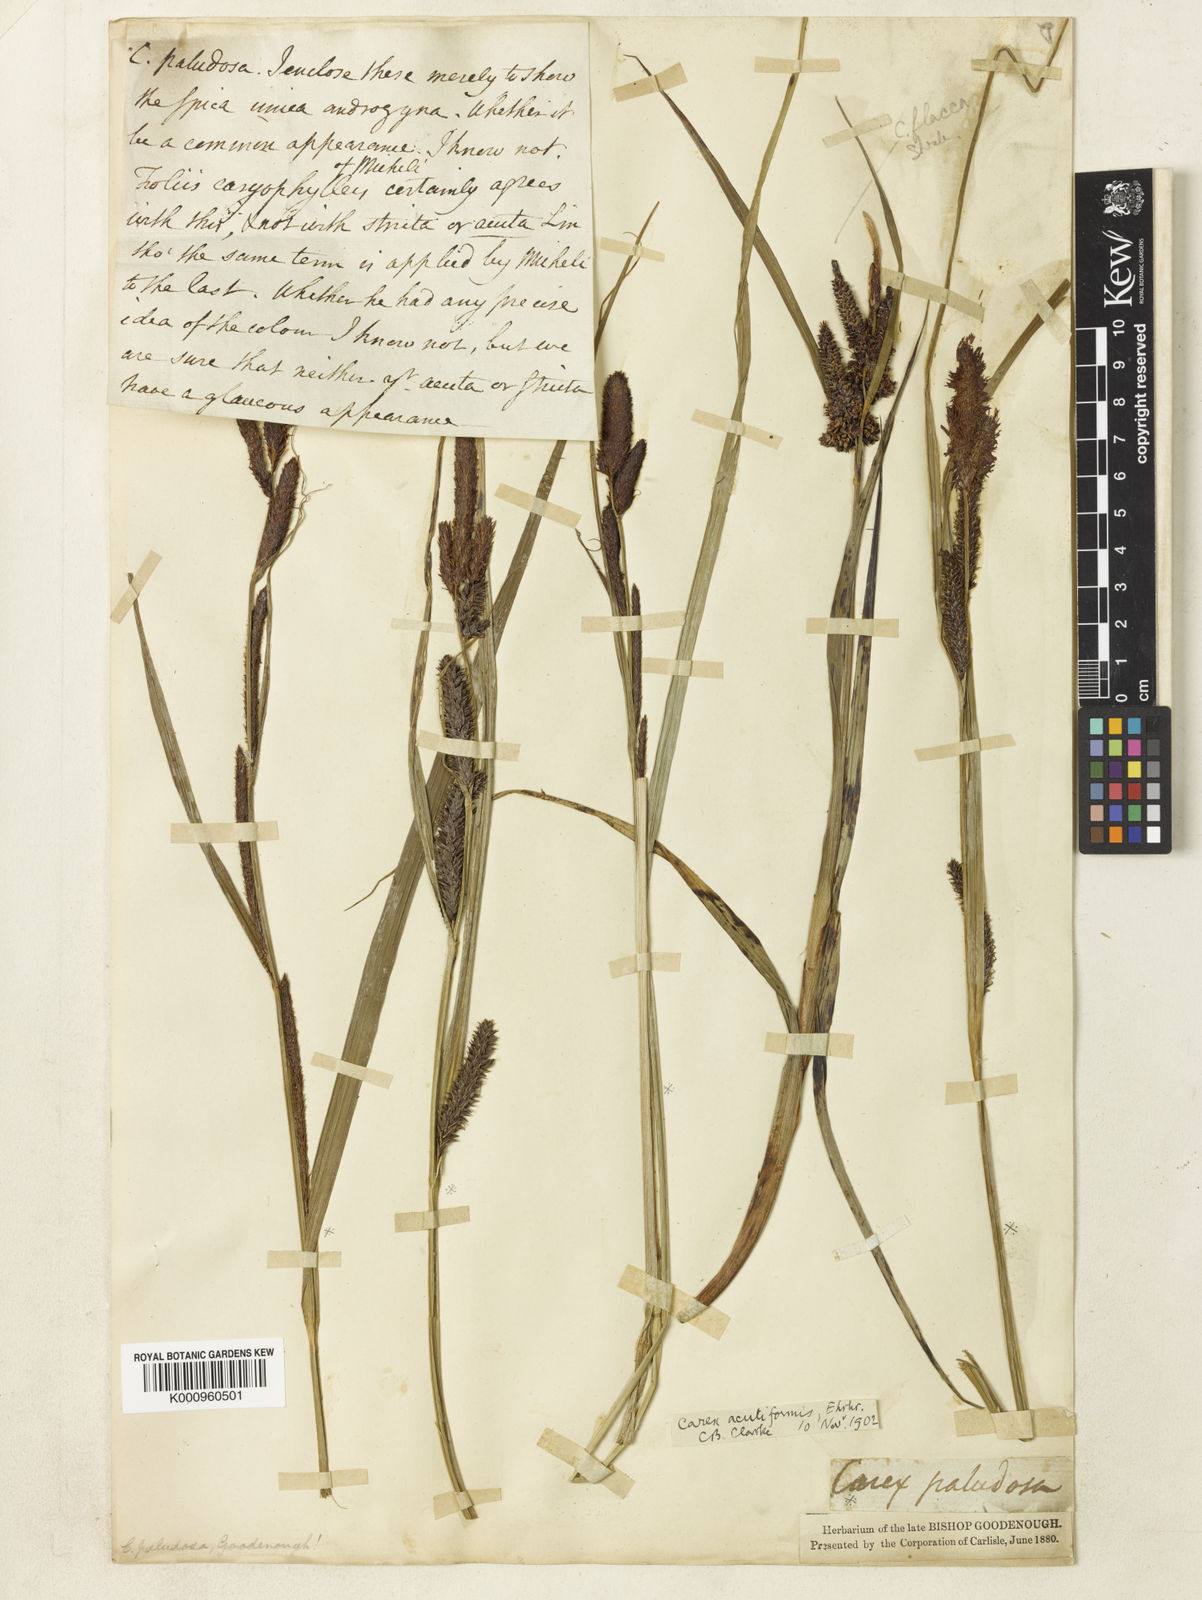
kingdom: Plantae
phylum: Tracheophyta
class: Liliopsida
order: Poales
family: Cyperaceae
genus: Carex
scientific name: Carex acutiformis
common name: Lesser pond-sedge
